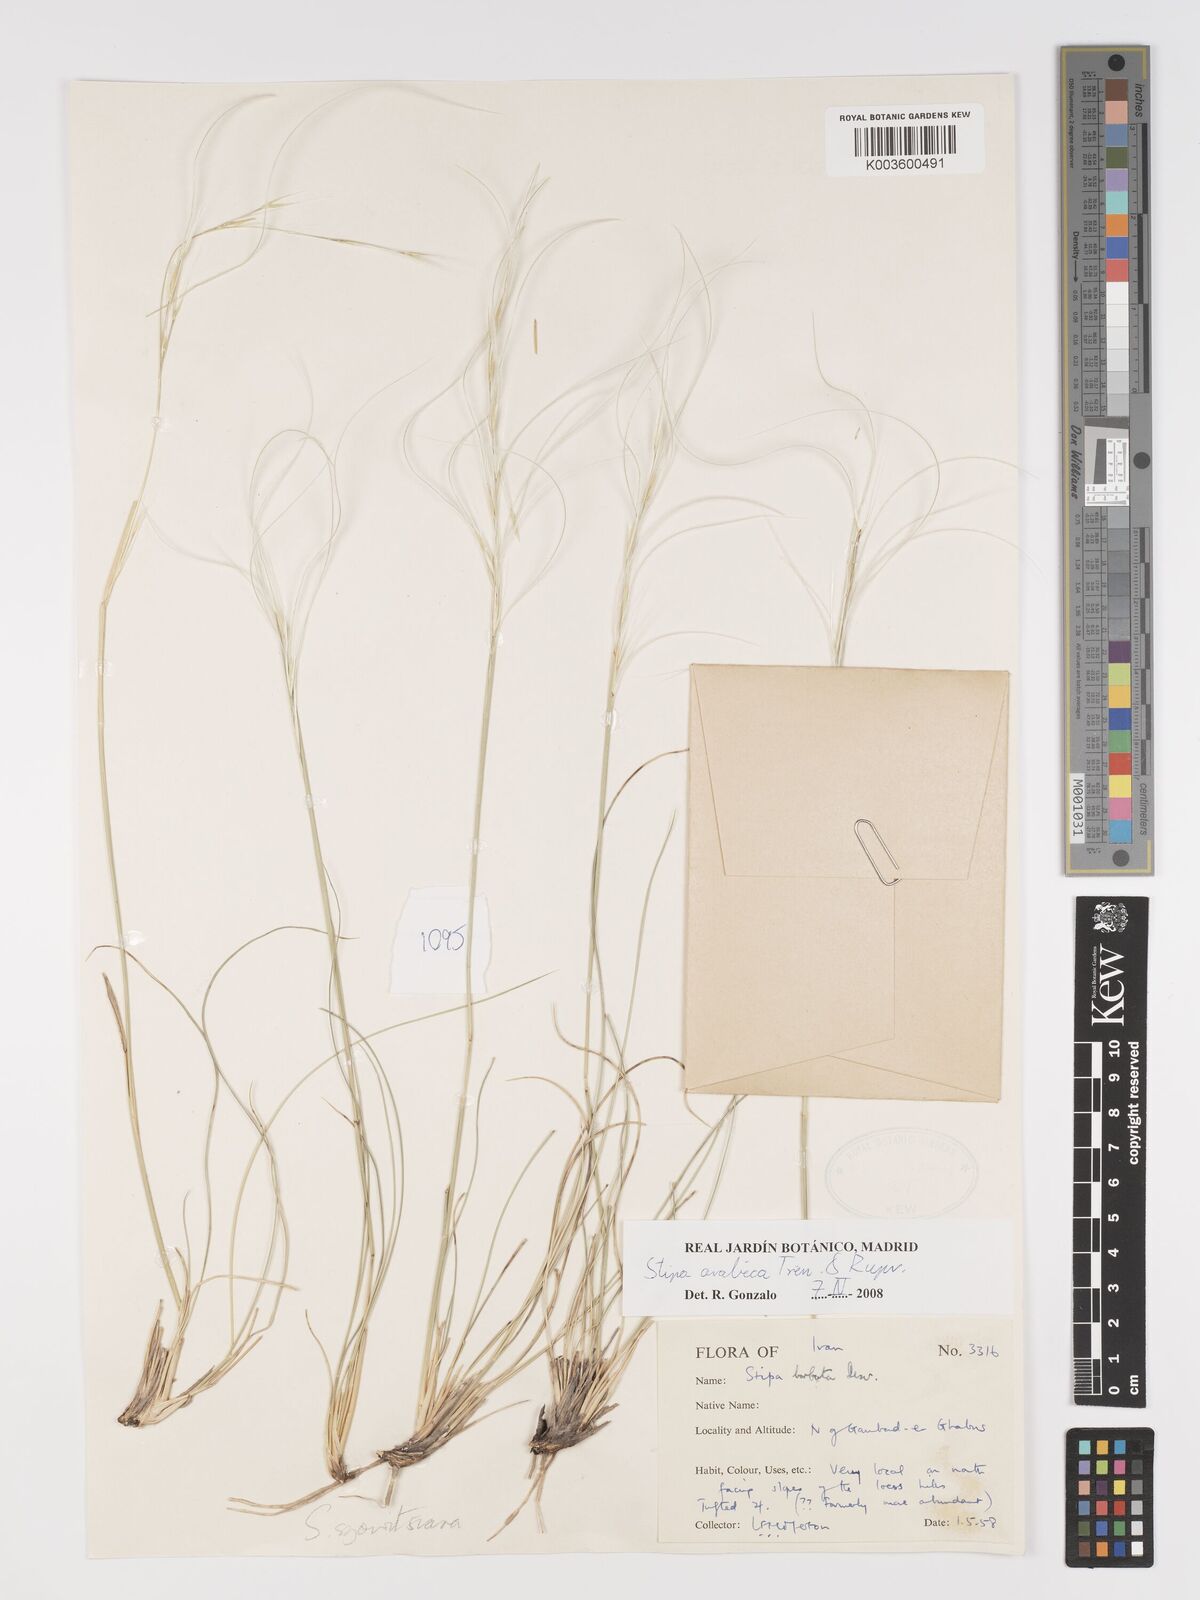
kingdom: Plantae
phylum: Tracheophyta
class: Liliopsida
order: Poales
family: Poaceae
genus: Stipa
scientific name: Stipa arabica
